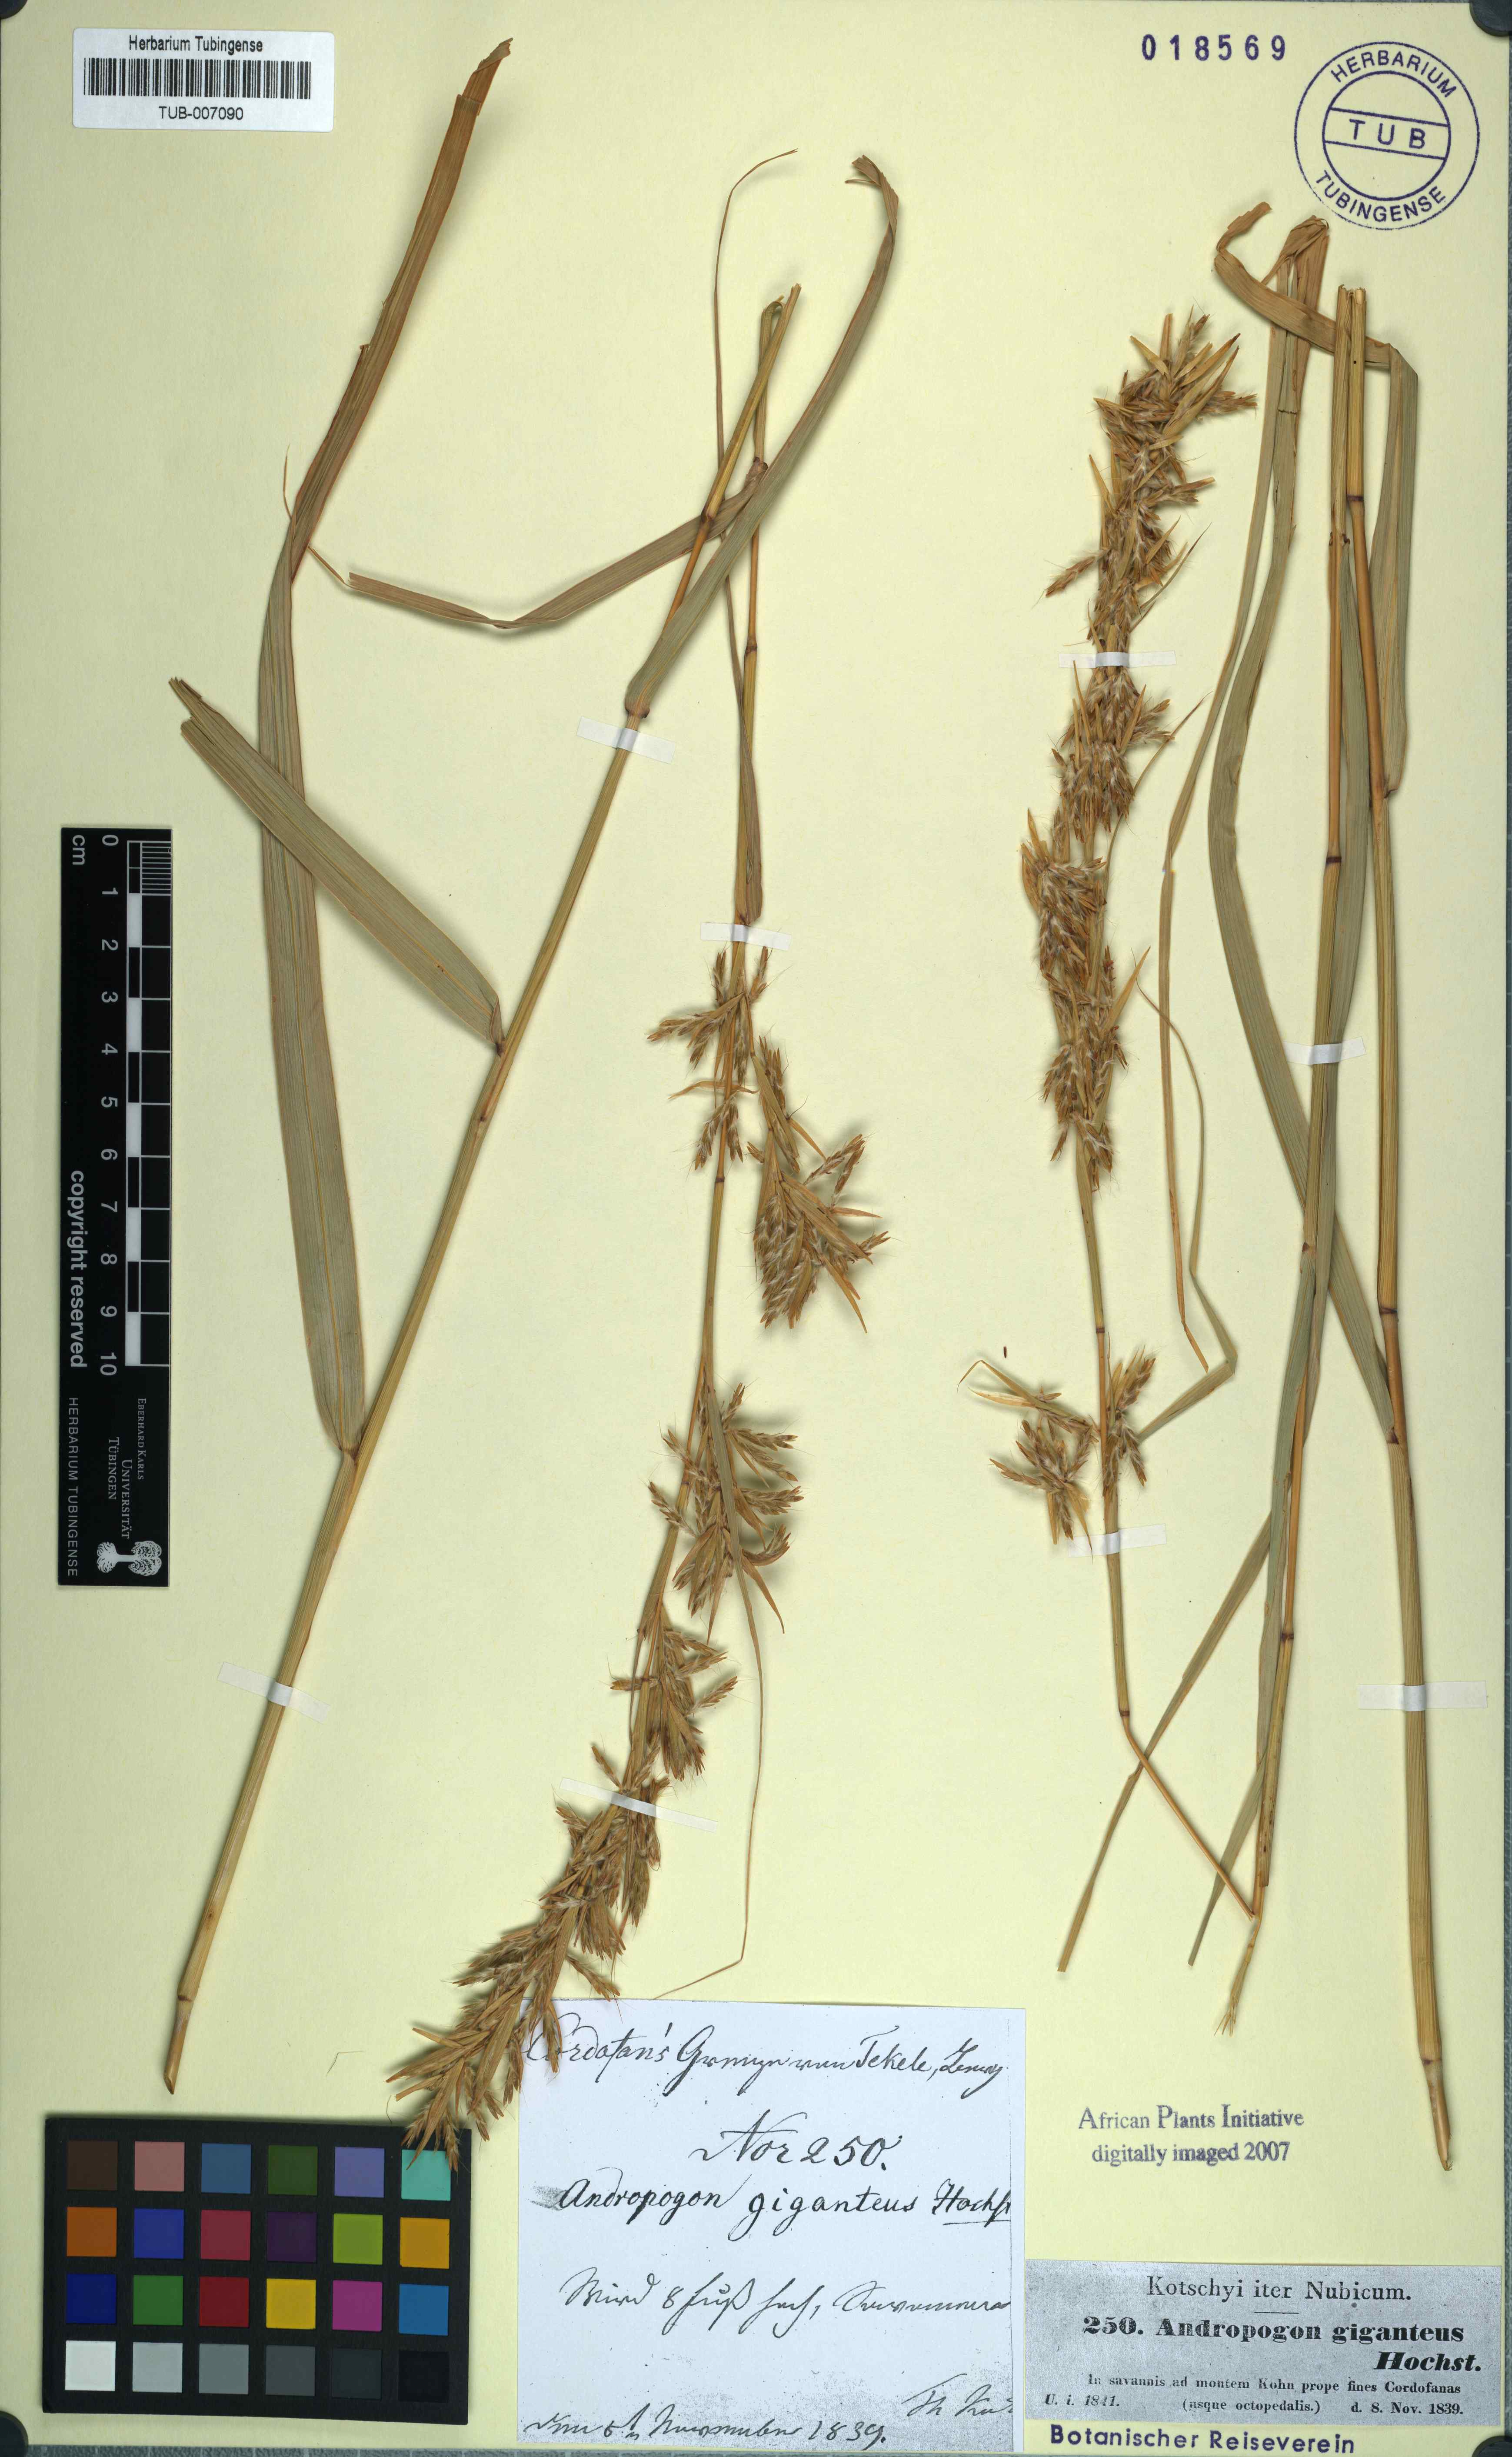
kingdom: Plantae
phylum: Tracheophyta
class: Liliopsida
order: Poales
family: Poaceae
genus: Cymbopogon
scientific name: Cymbopogon schoenanthus
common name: Geranium grass
